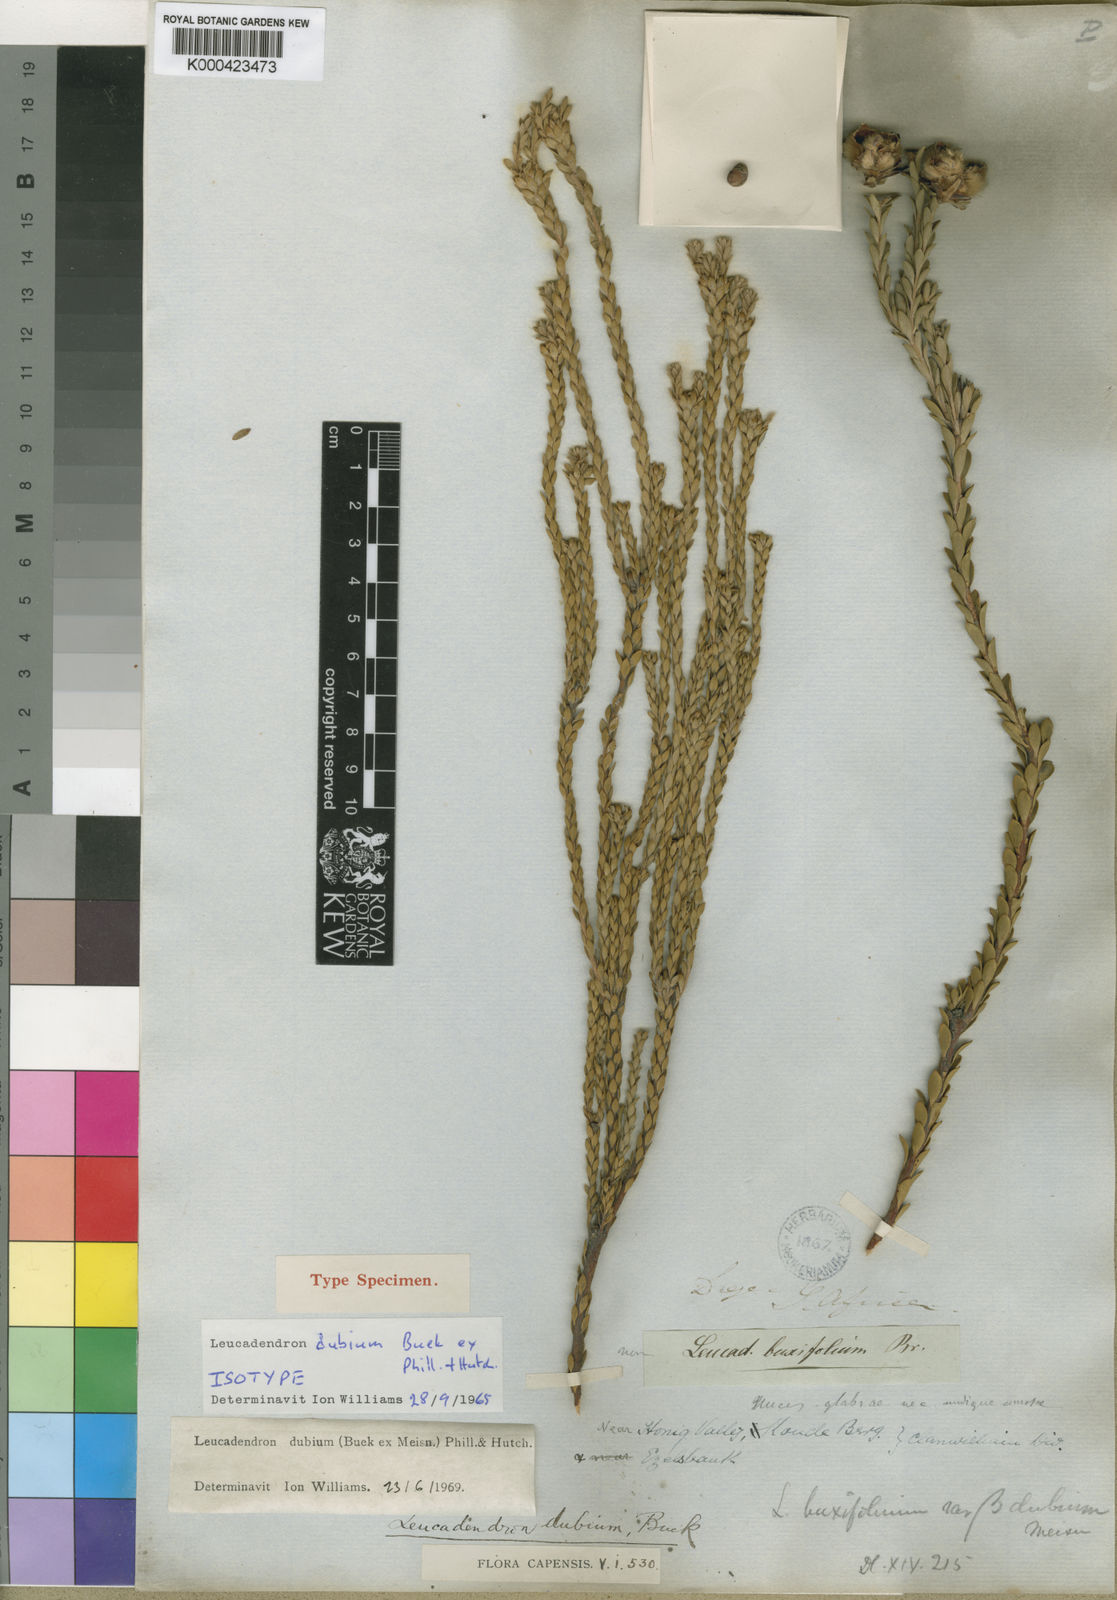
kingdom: Plantae
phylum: Tracheophyta
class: Magnoliopsida
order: Proteales
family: Proteaceae
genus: Leucadendron
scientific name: Leucadendron dubium
